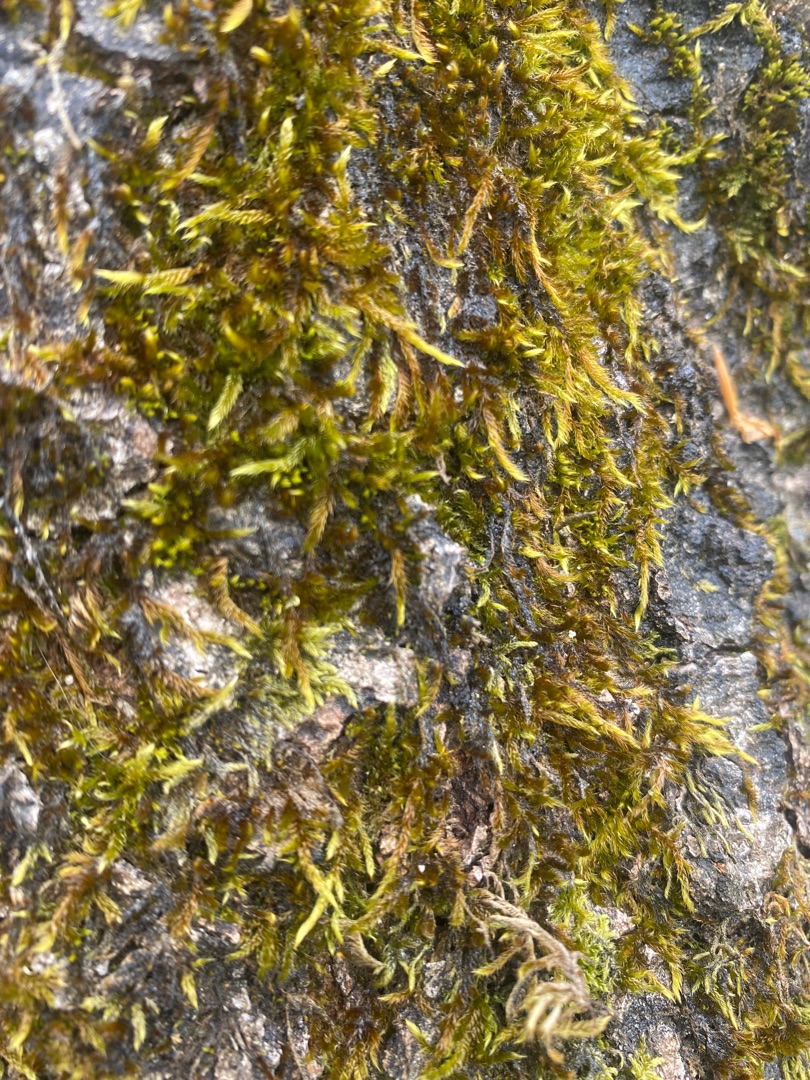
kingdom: Plantae
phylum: Bryophyta
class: Bryopsida
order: Hypnales
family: Hypnaceae
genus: Hypnum
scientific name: Hypnum cupressiforme
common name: Almindelig cypresmos
